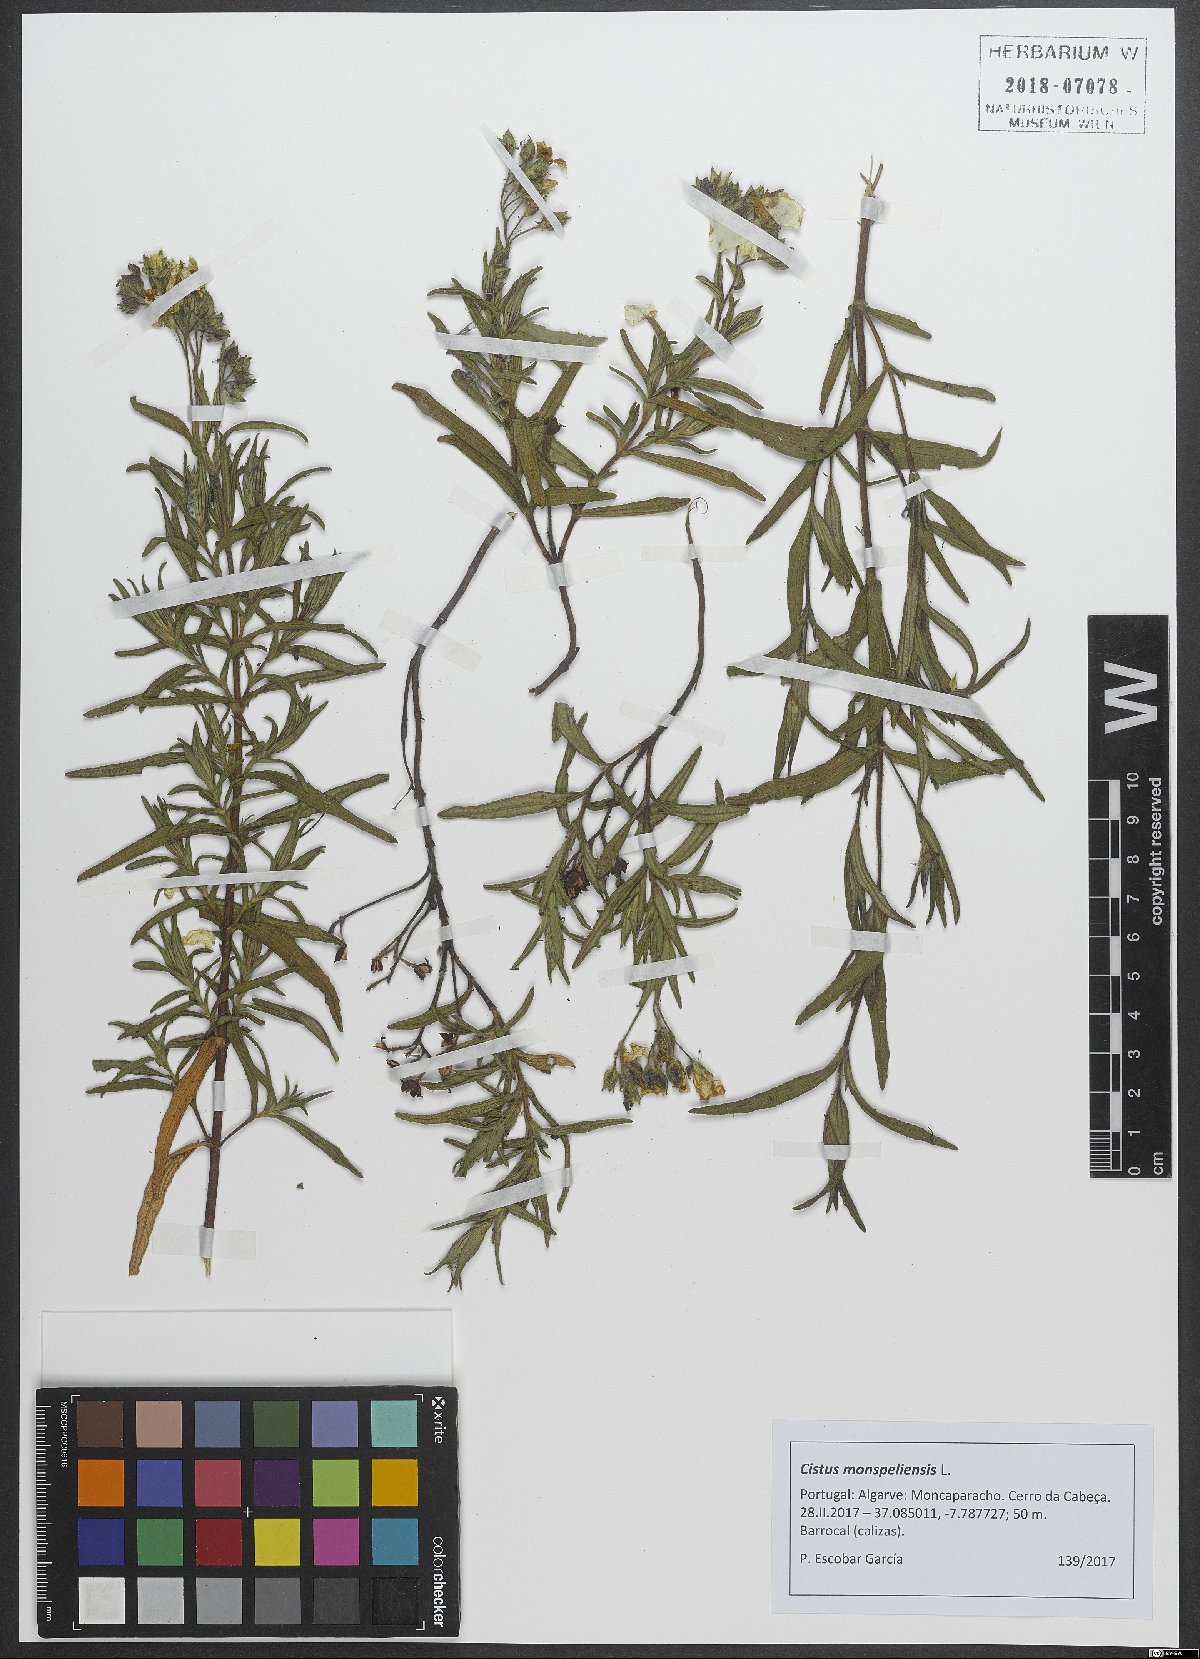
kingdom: Plantae
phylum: Tracheophyta
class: Magnoliopsida
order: Malvales
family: Cistaceae
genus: Cistus
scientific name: Cistus monspeliensis
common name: Montpelier cistus
